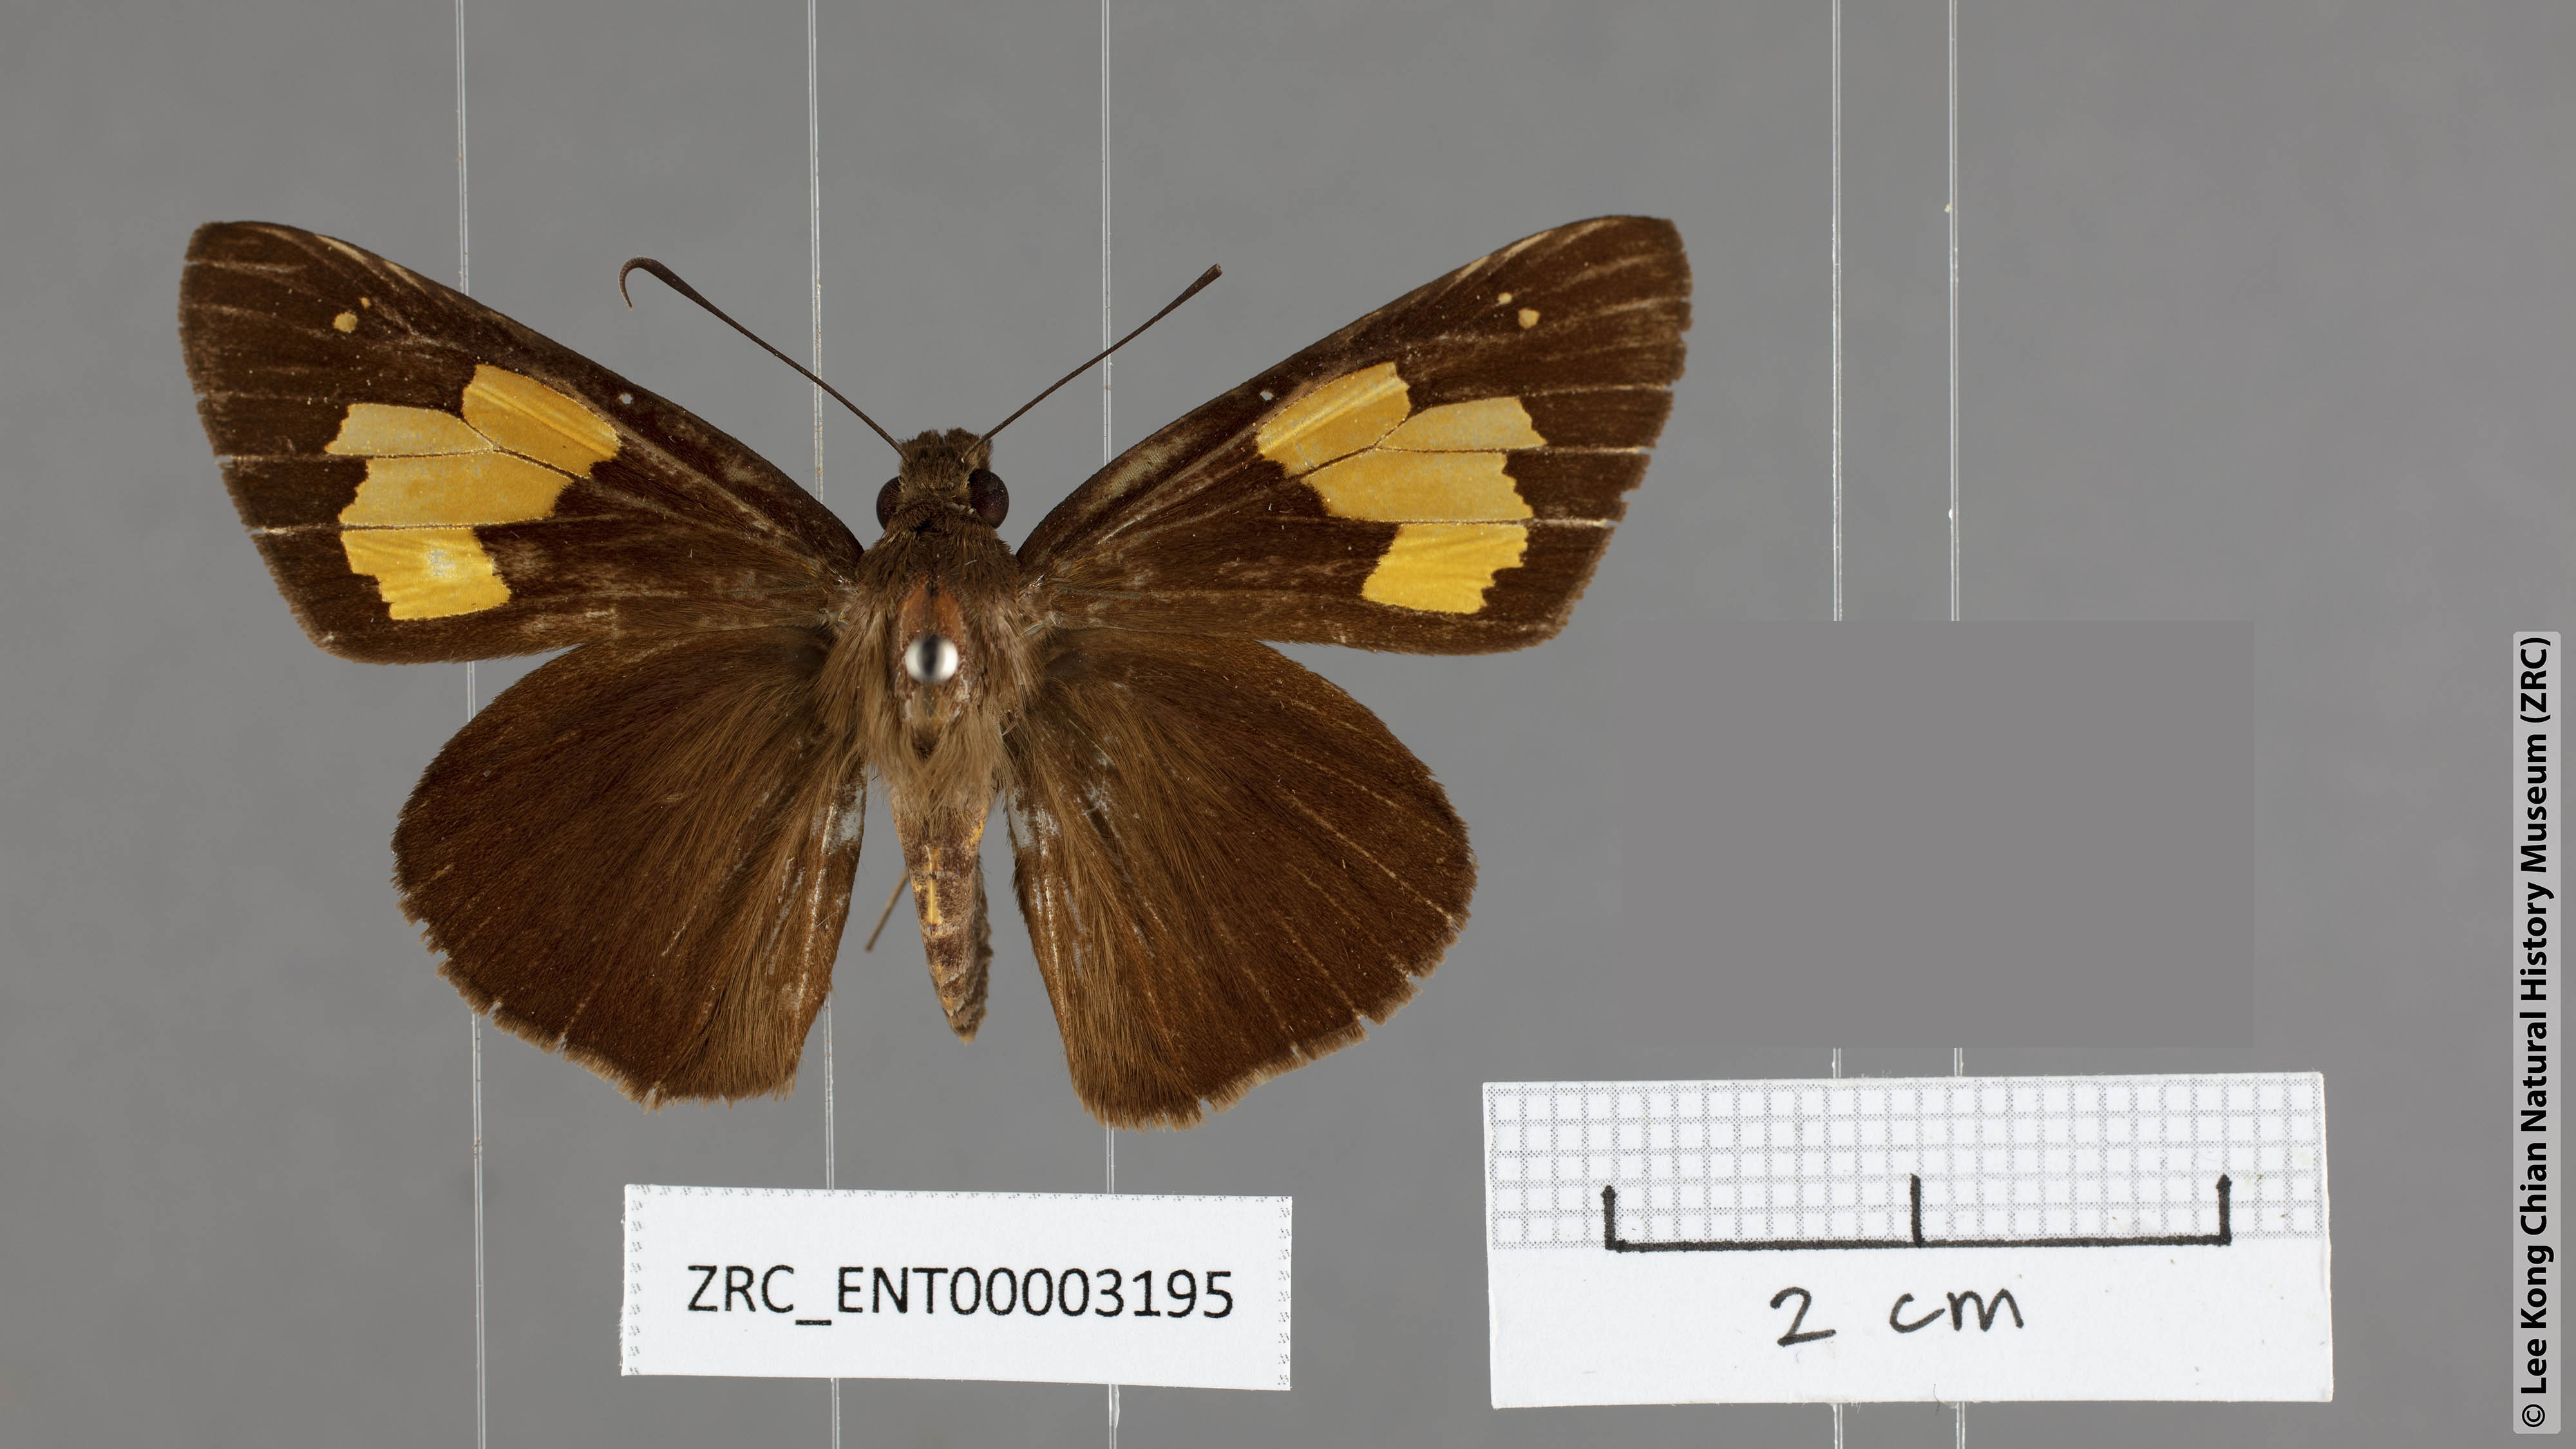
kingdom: Animalia
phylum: Arthropoda
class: Insecta
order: Lepidoptera
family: Hesperiidae
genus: Erionota
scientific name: Erionota
